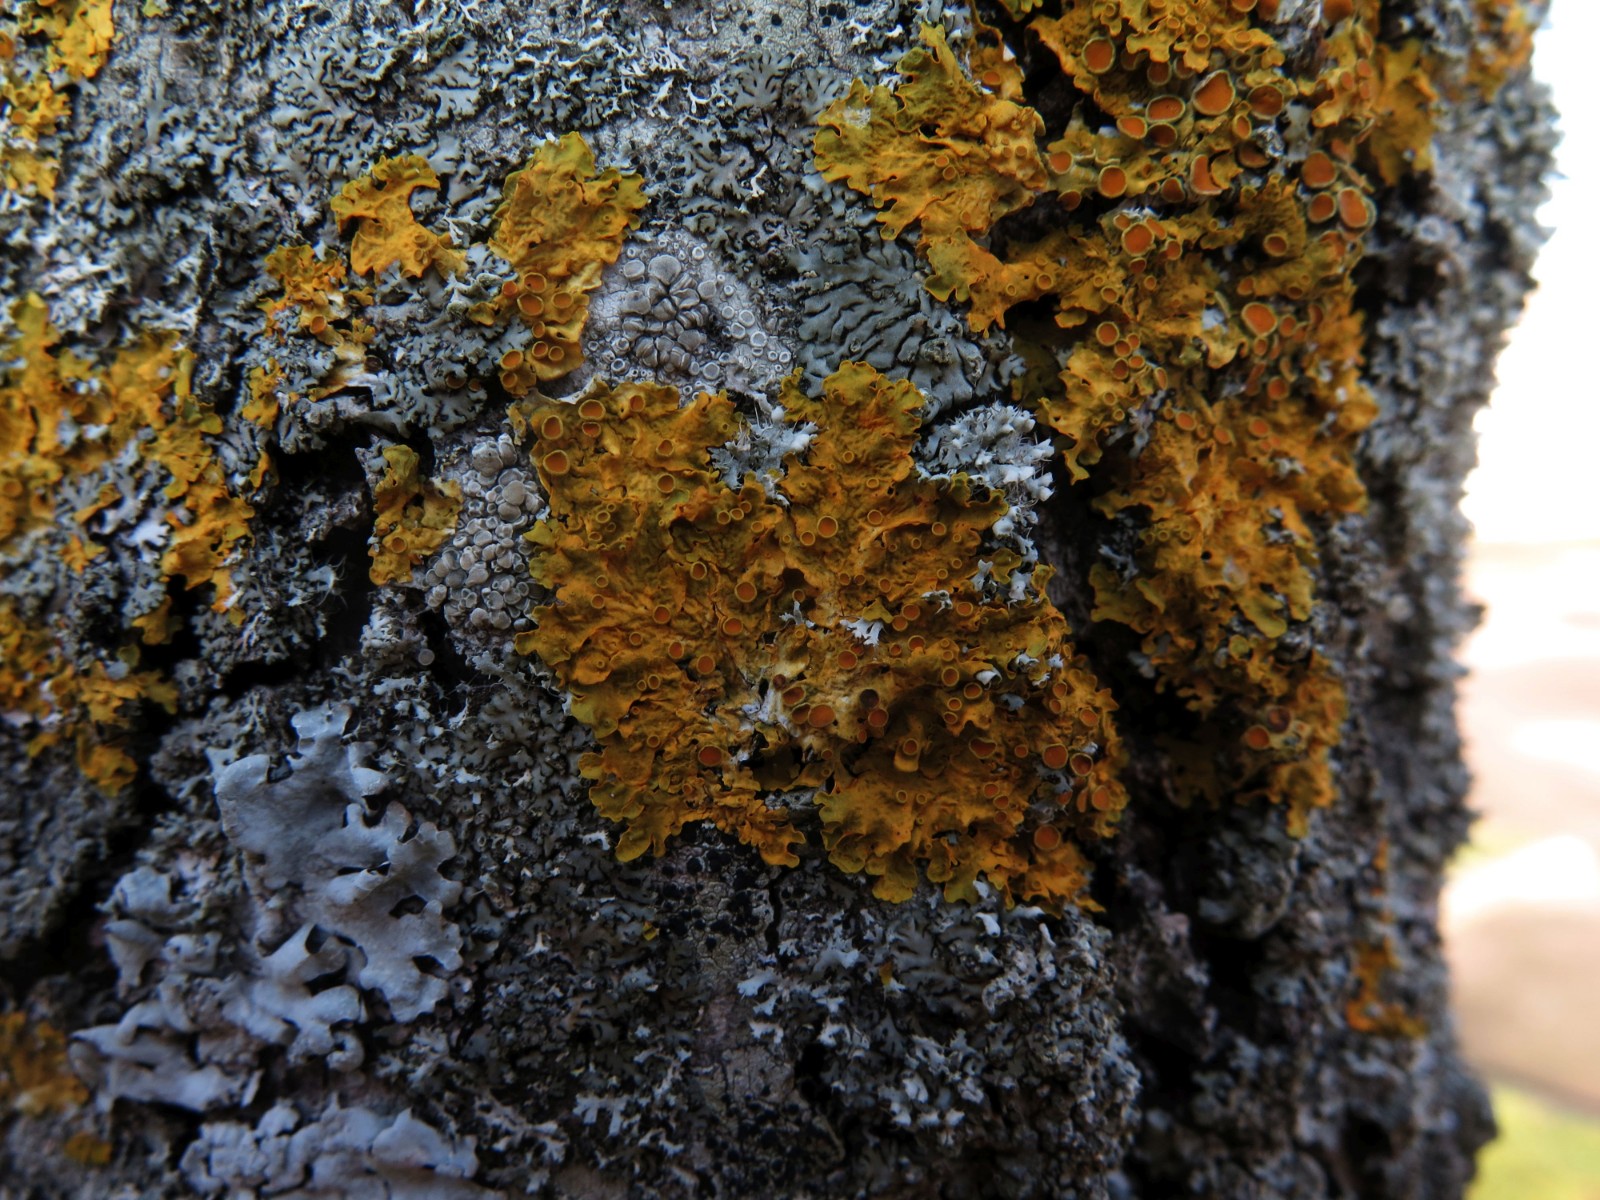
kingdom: Fungi
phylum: Ascomycota
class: Lecanoromycetes
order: Teloschistales
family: Teloschistaceae
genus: Xanthoria
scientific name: Xanthoria parietina
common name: almindelig væggelav
